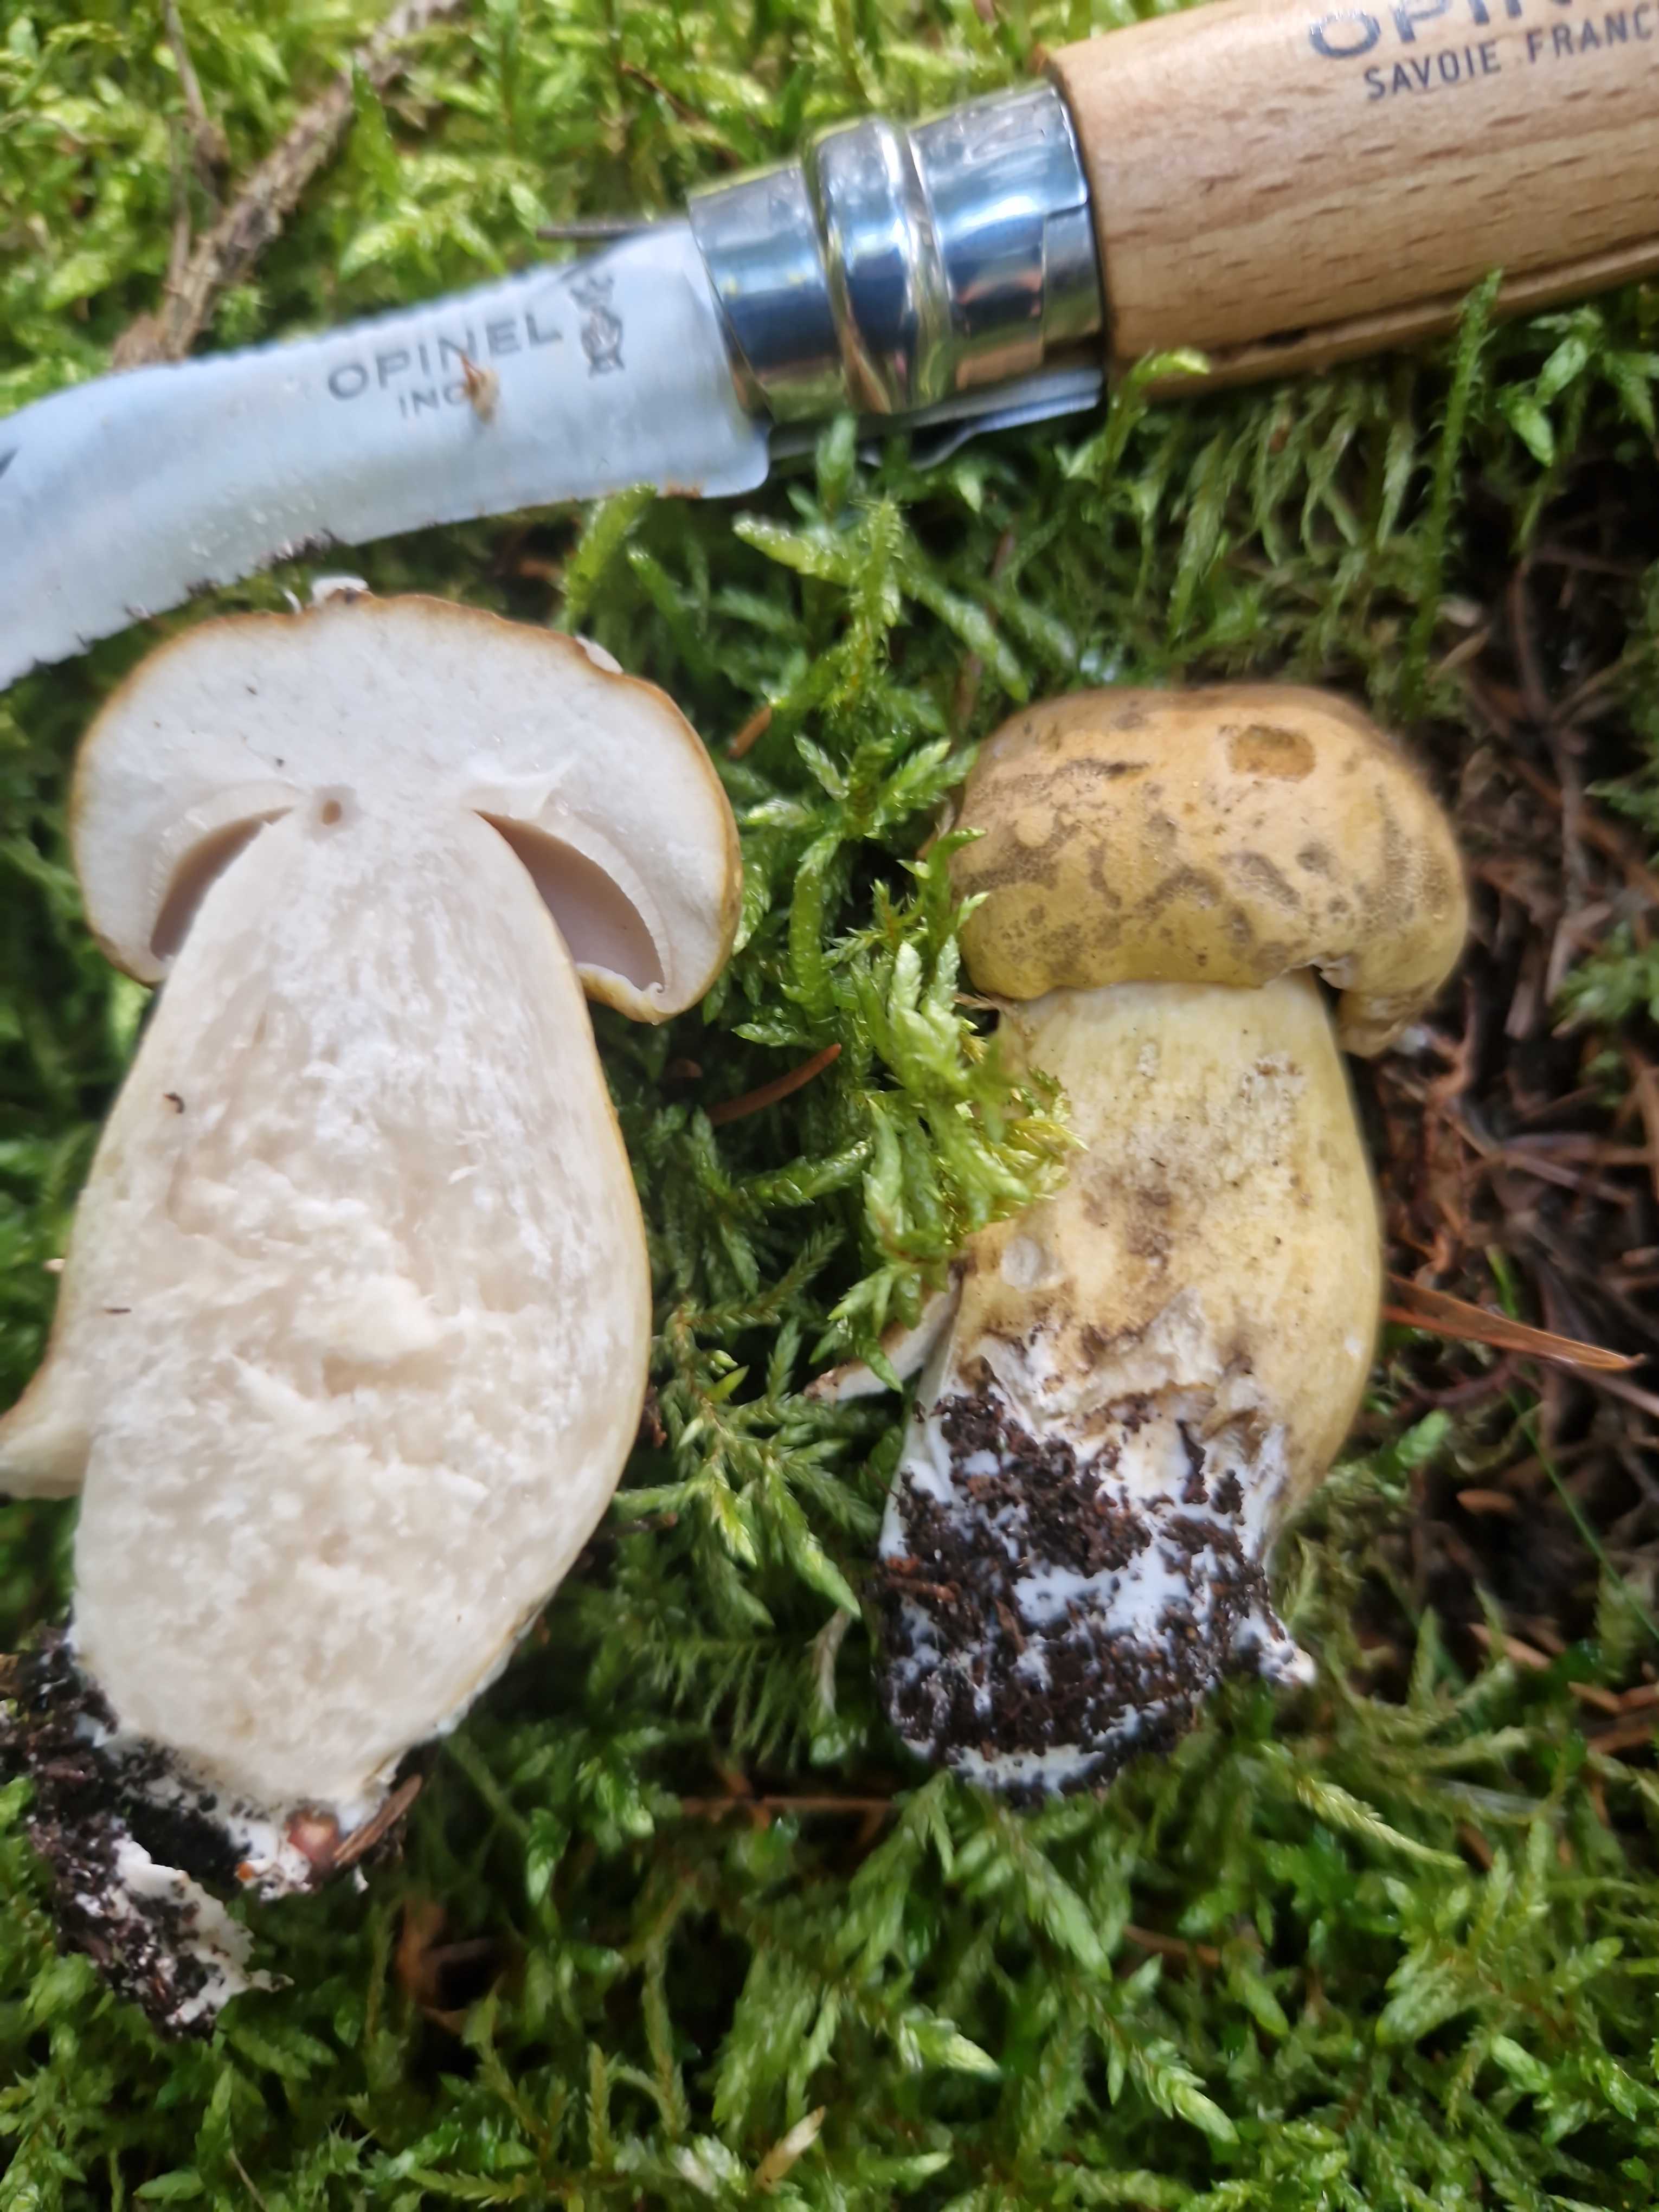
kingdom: Fungi
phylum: Basidiomycota
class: Agaricomycetes
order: Boletales
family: Boletaceae
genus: Tylopilus
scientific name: Tylopilus felleus
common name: galderørhat
